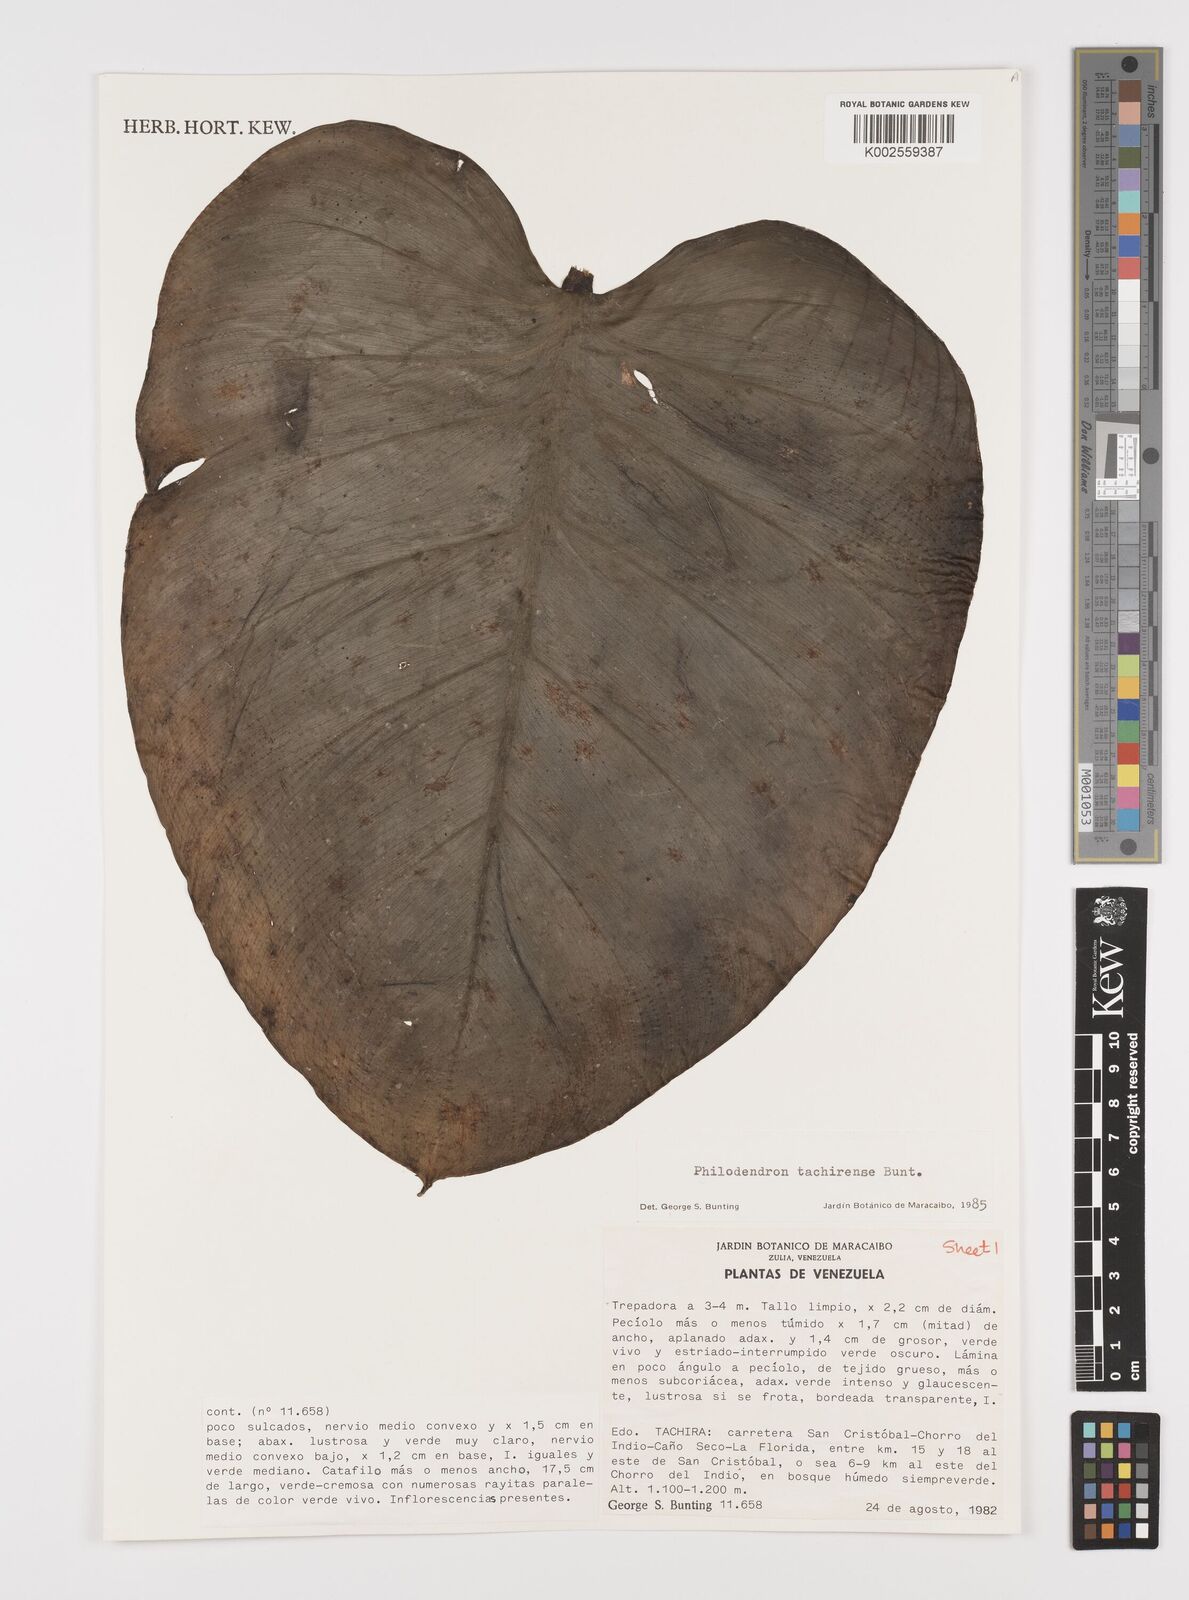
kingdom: Plantae
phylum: Tracheophyta
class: Liliopsida
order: Alismatales
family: Araceae
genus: Philodendron
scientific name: Philodendron tachirense
